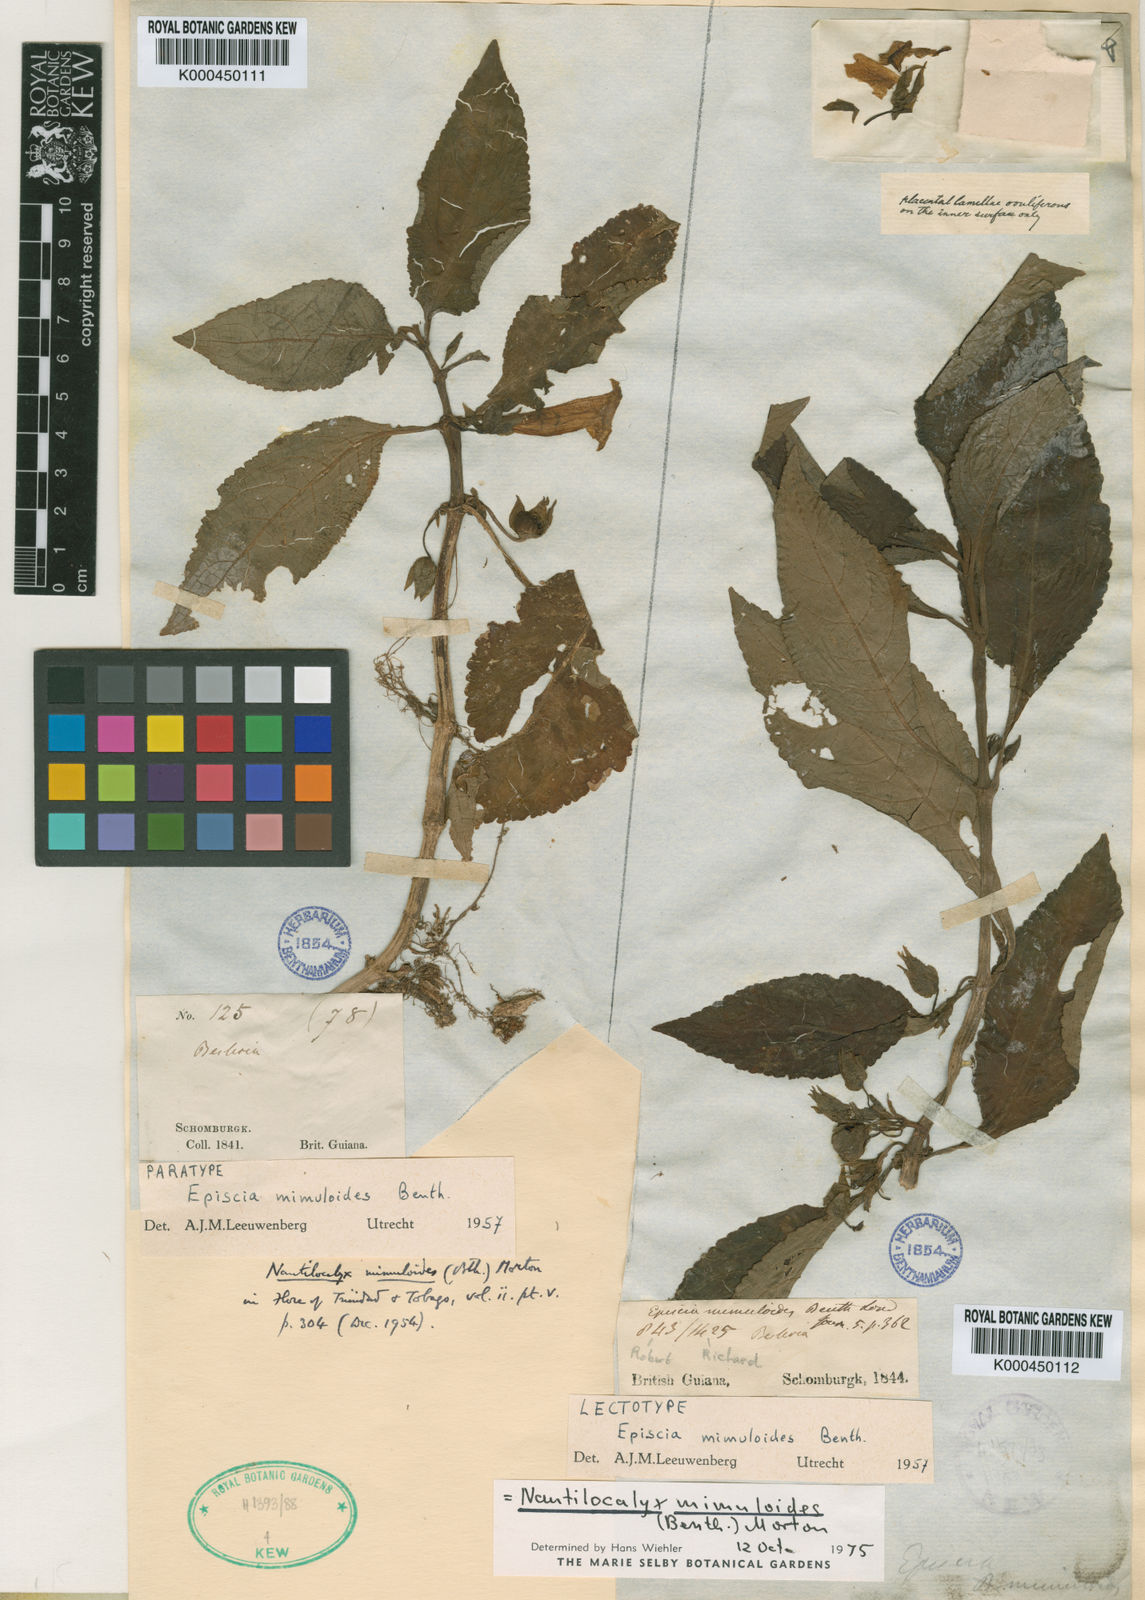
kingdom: Plantae
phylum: Tracheophyta
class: Magnoliopsida
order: Lamiales
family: Gesneriaceae
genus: Nautilocalyx
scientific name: Nautilocalyx mimuloides
